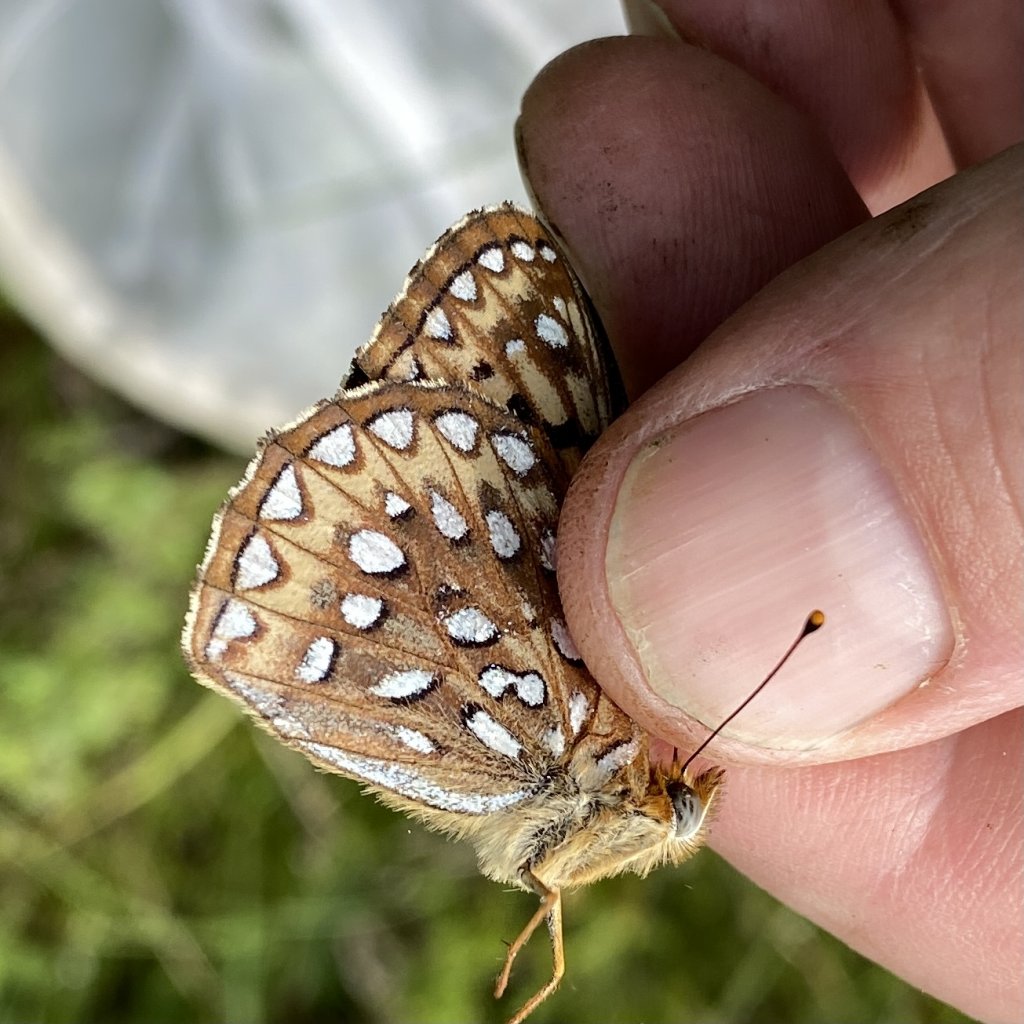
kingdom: Animalia
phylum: Arthropoda
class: Insecta
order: Lepidoptera
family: Nymphalidae
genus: Speyeria
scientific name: Speyeria atlantis
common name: Atlantis Fritillary
